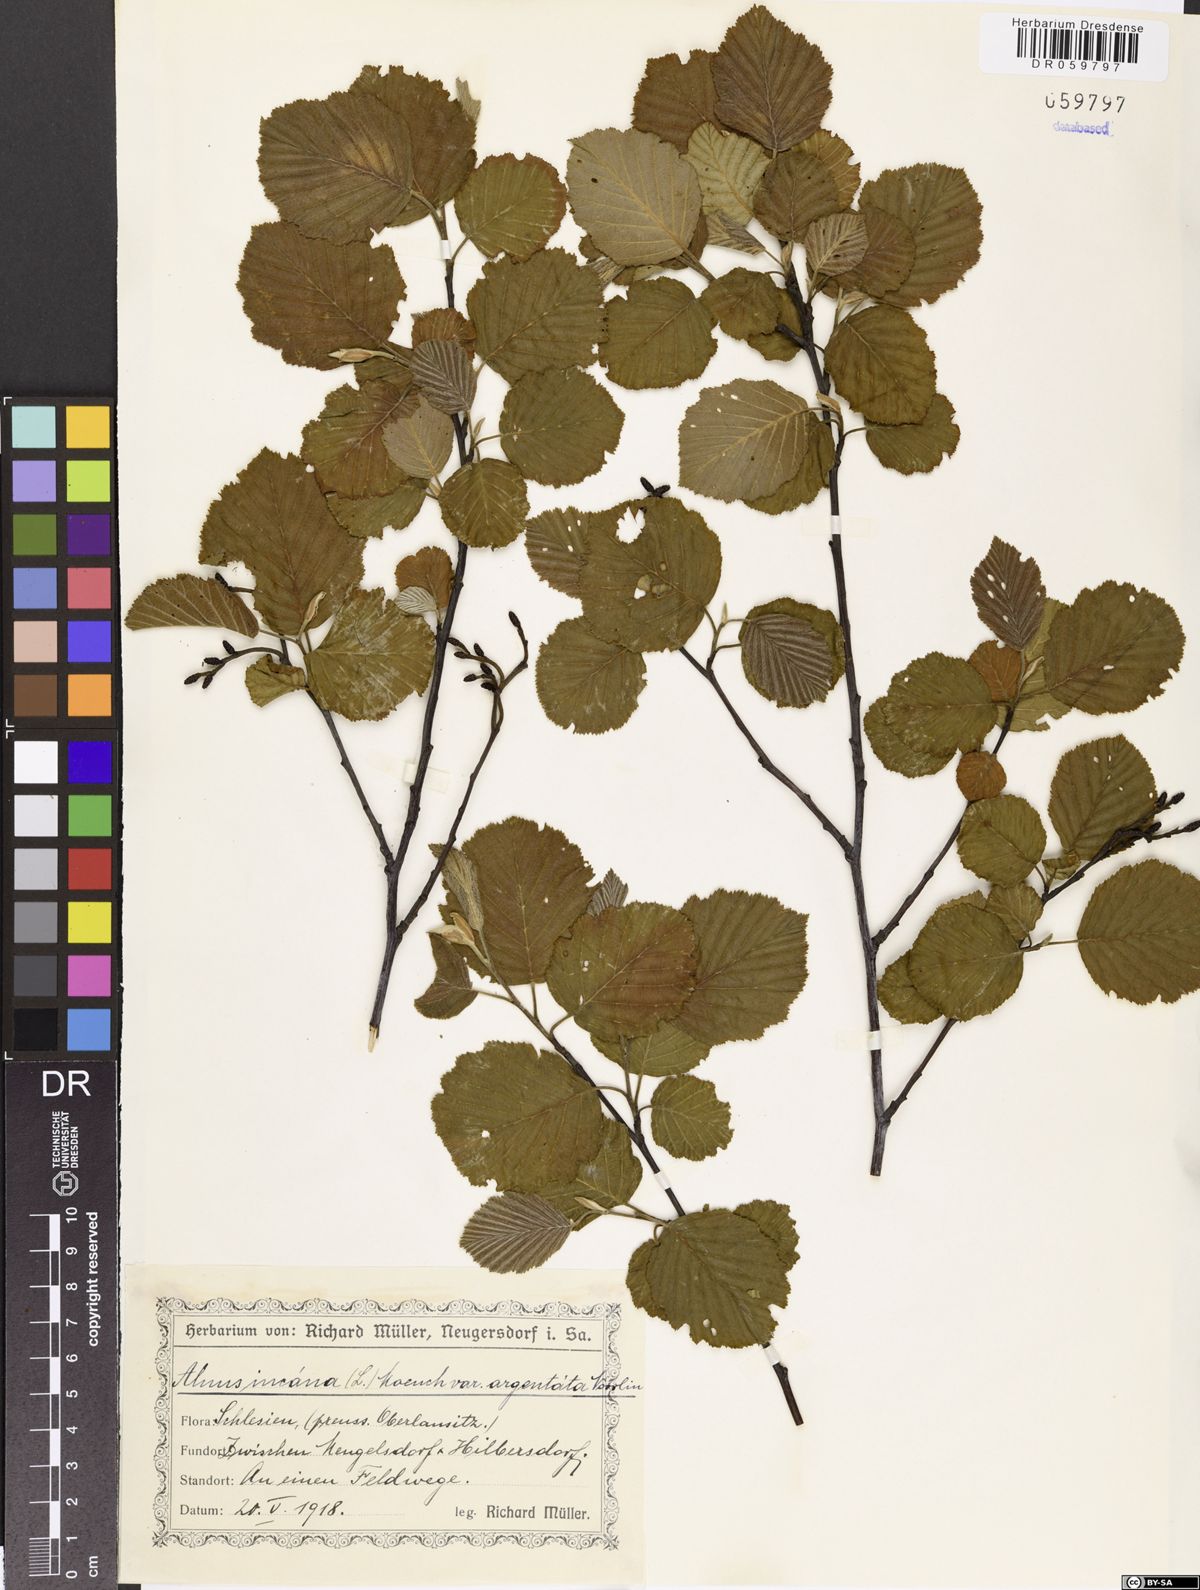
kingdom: Plantae
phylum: Tracheophyta
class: Magnoliopsida
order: Fagales
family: Betulaceae
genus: Alnus
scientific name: Alnus incana
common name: Grey alder
